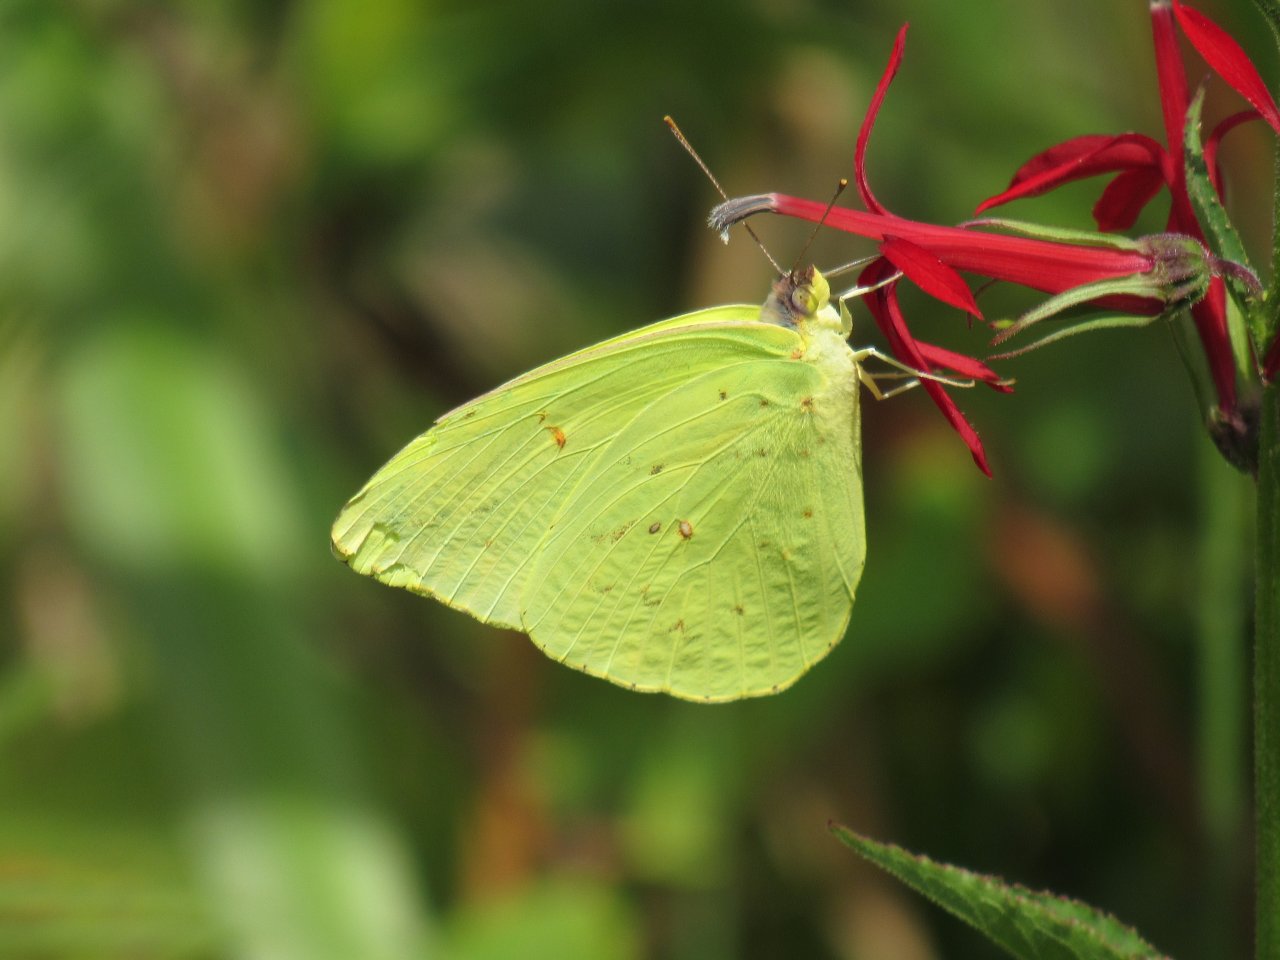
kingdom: Animalia
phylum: Arthropoda
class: Insecta
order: Lepidoptera
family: Pieridae
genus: Phoebis
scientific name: Phoebis sennae
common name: Cloudless Sulphur
